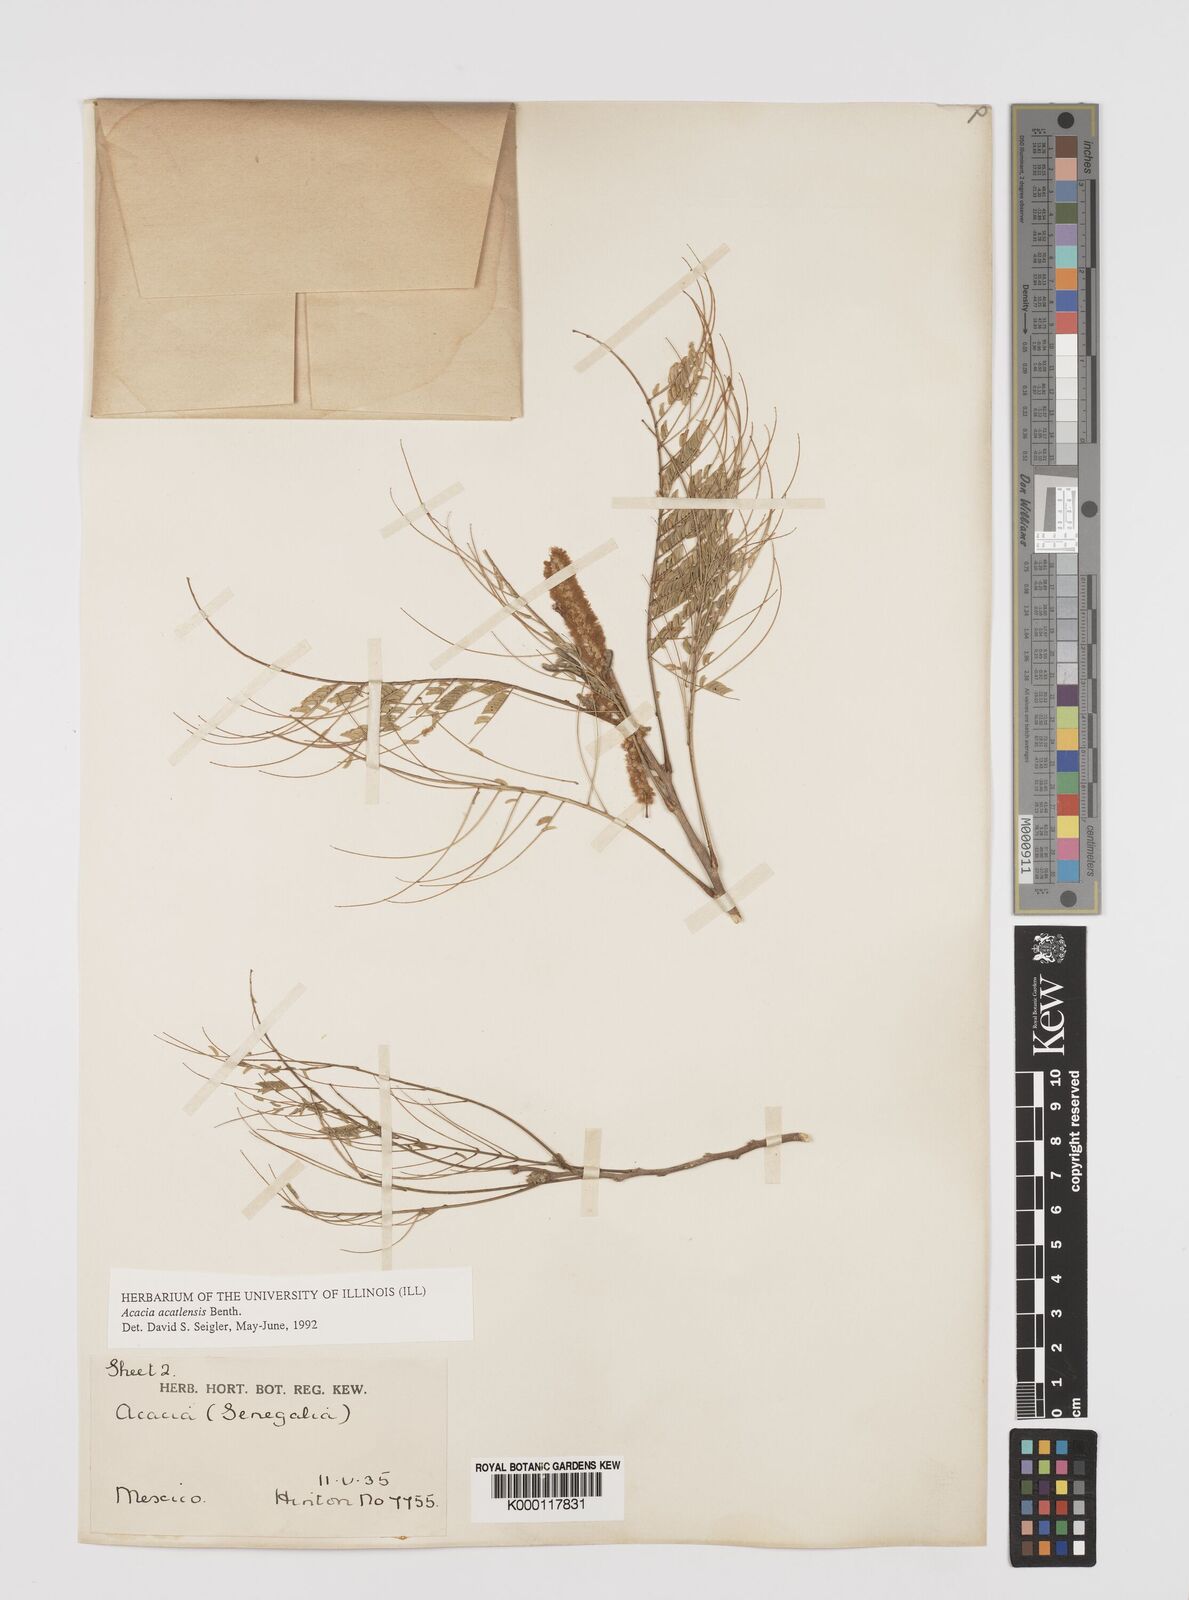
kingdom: Plantae
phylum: Tracheophyta
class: Magnoliopsida
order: Fabales
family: Fabaceae
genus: Mariosousa
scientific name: Mariosousa acatlensis
